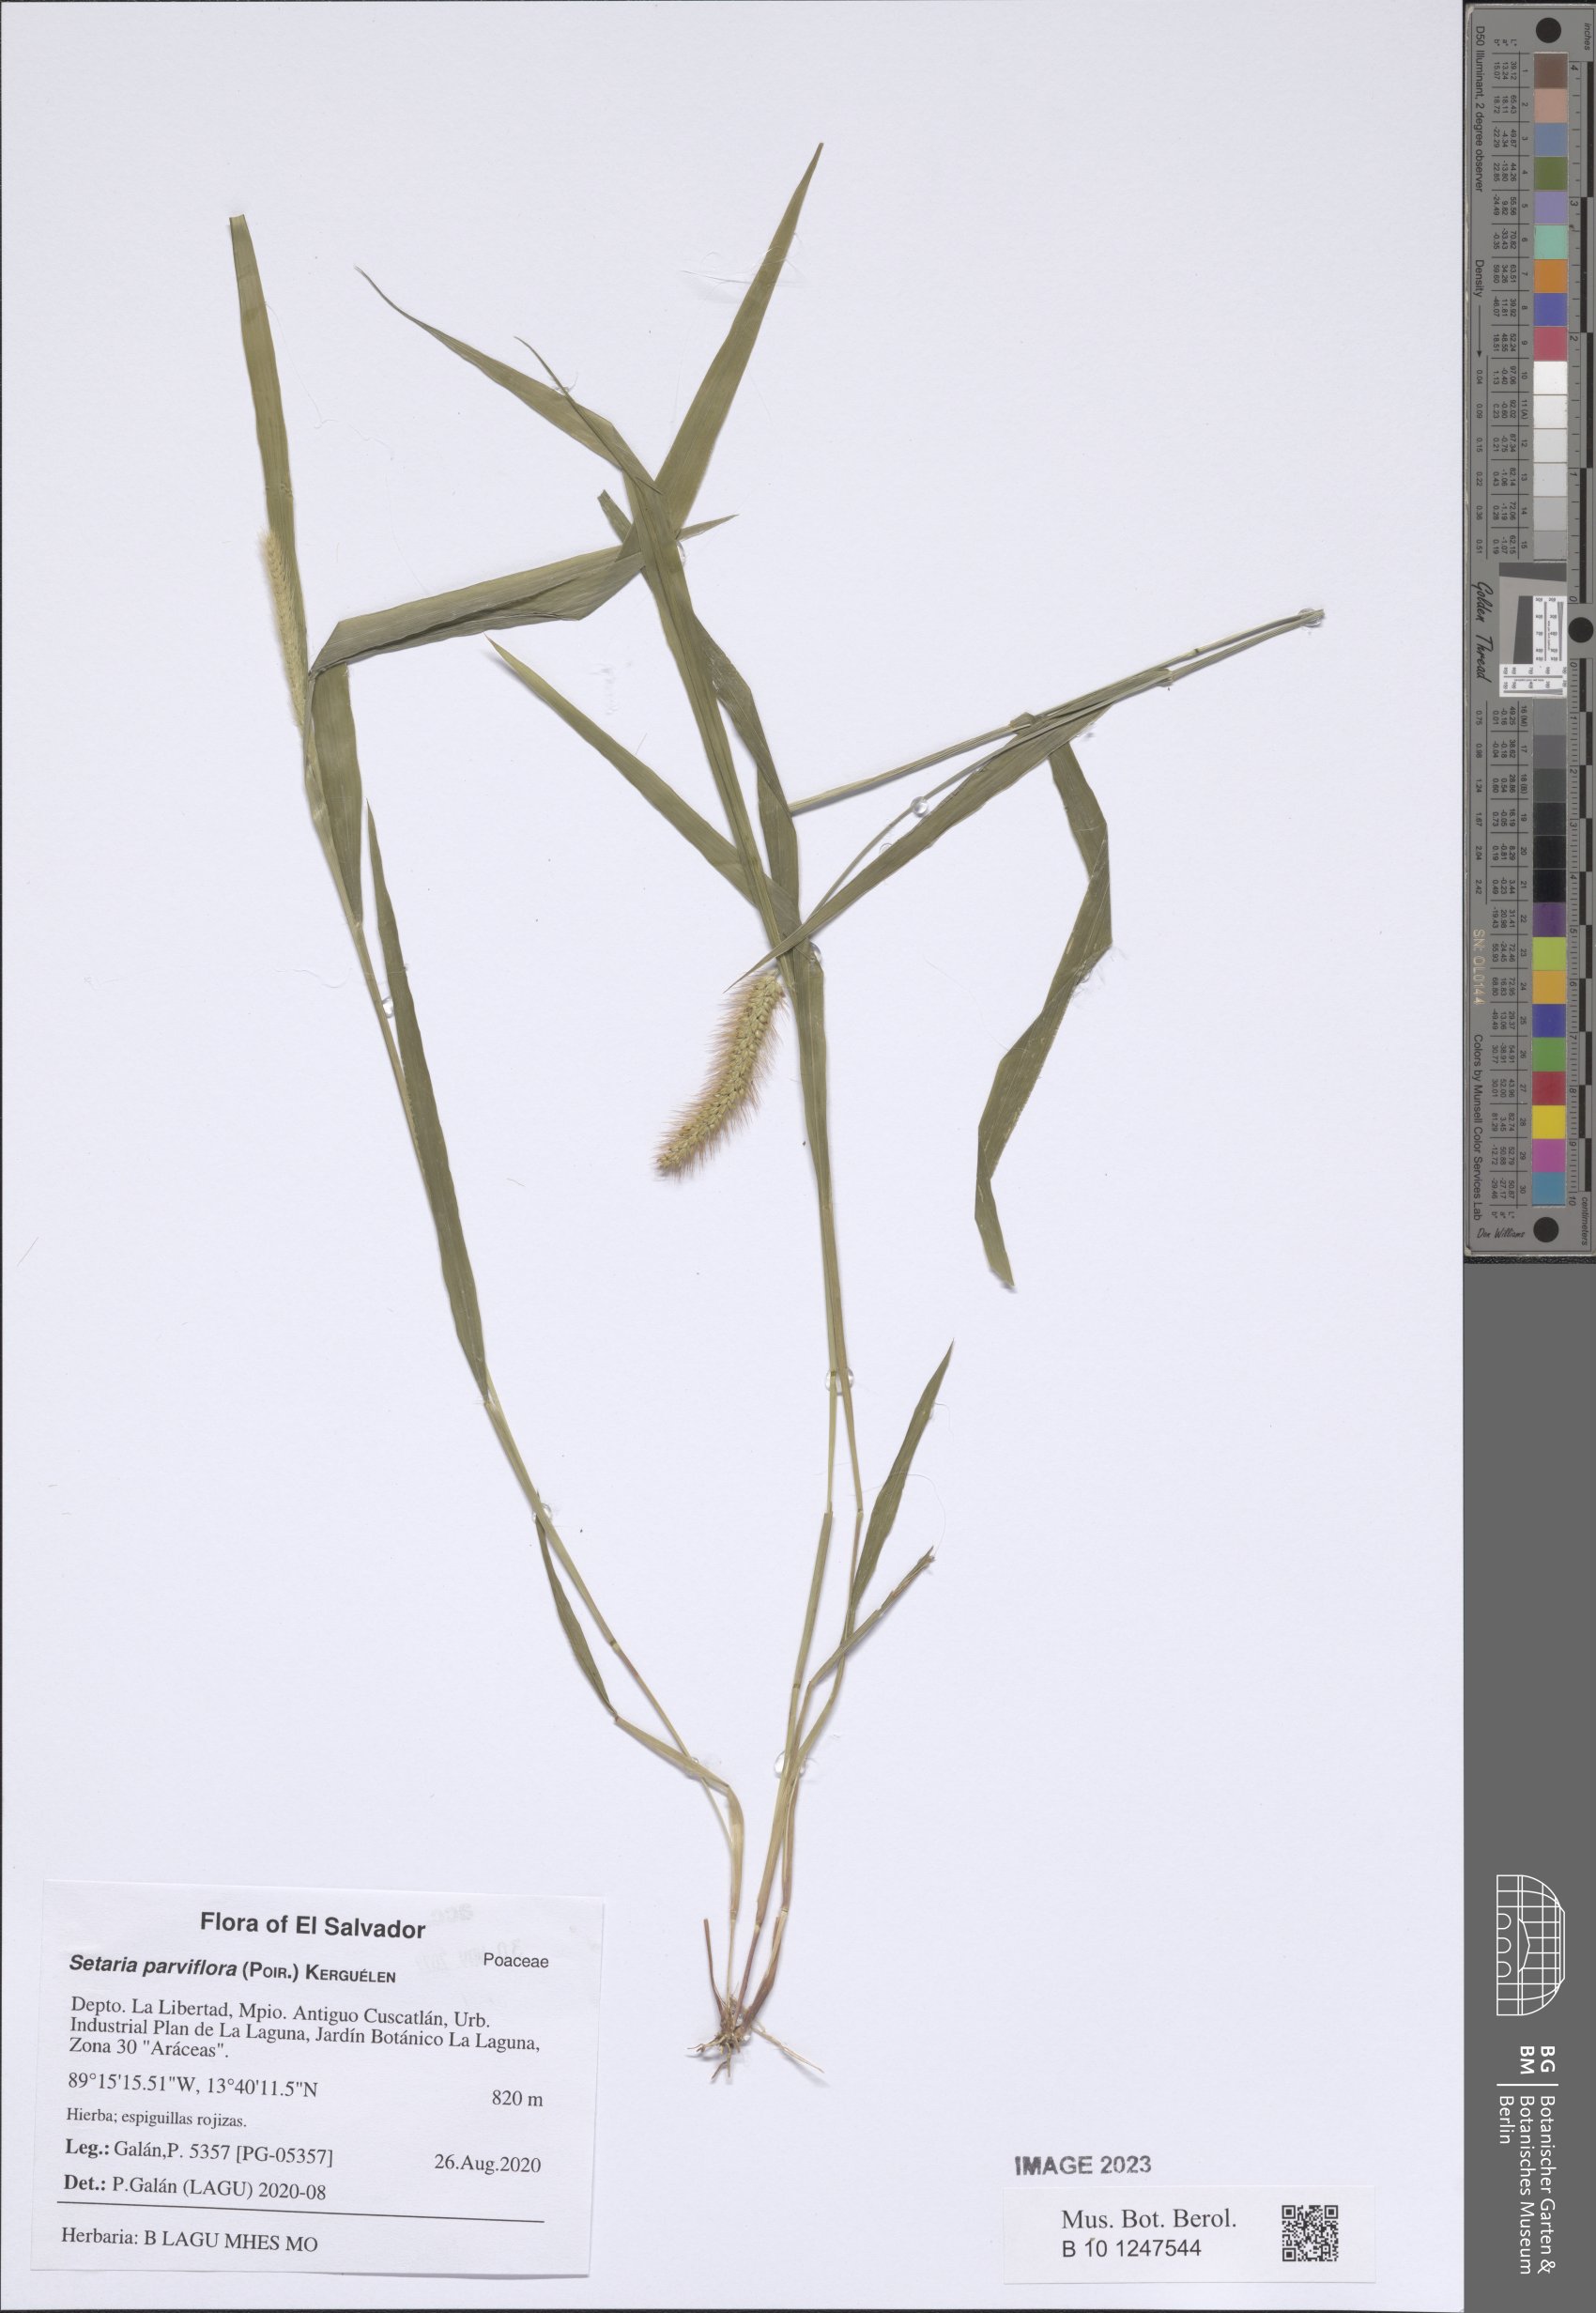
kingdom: Plantae
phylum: Tracheophyta
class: Liliopsida
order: Poales
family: Poaceae
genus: Setaria
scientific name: Setaria parviflora
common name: Knotroot bristle-grass
